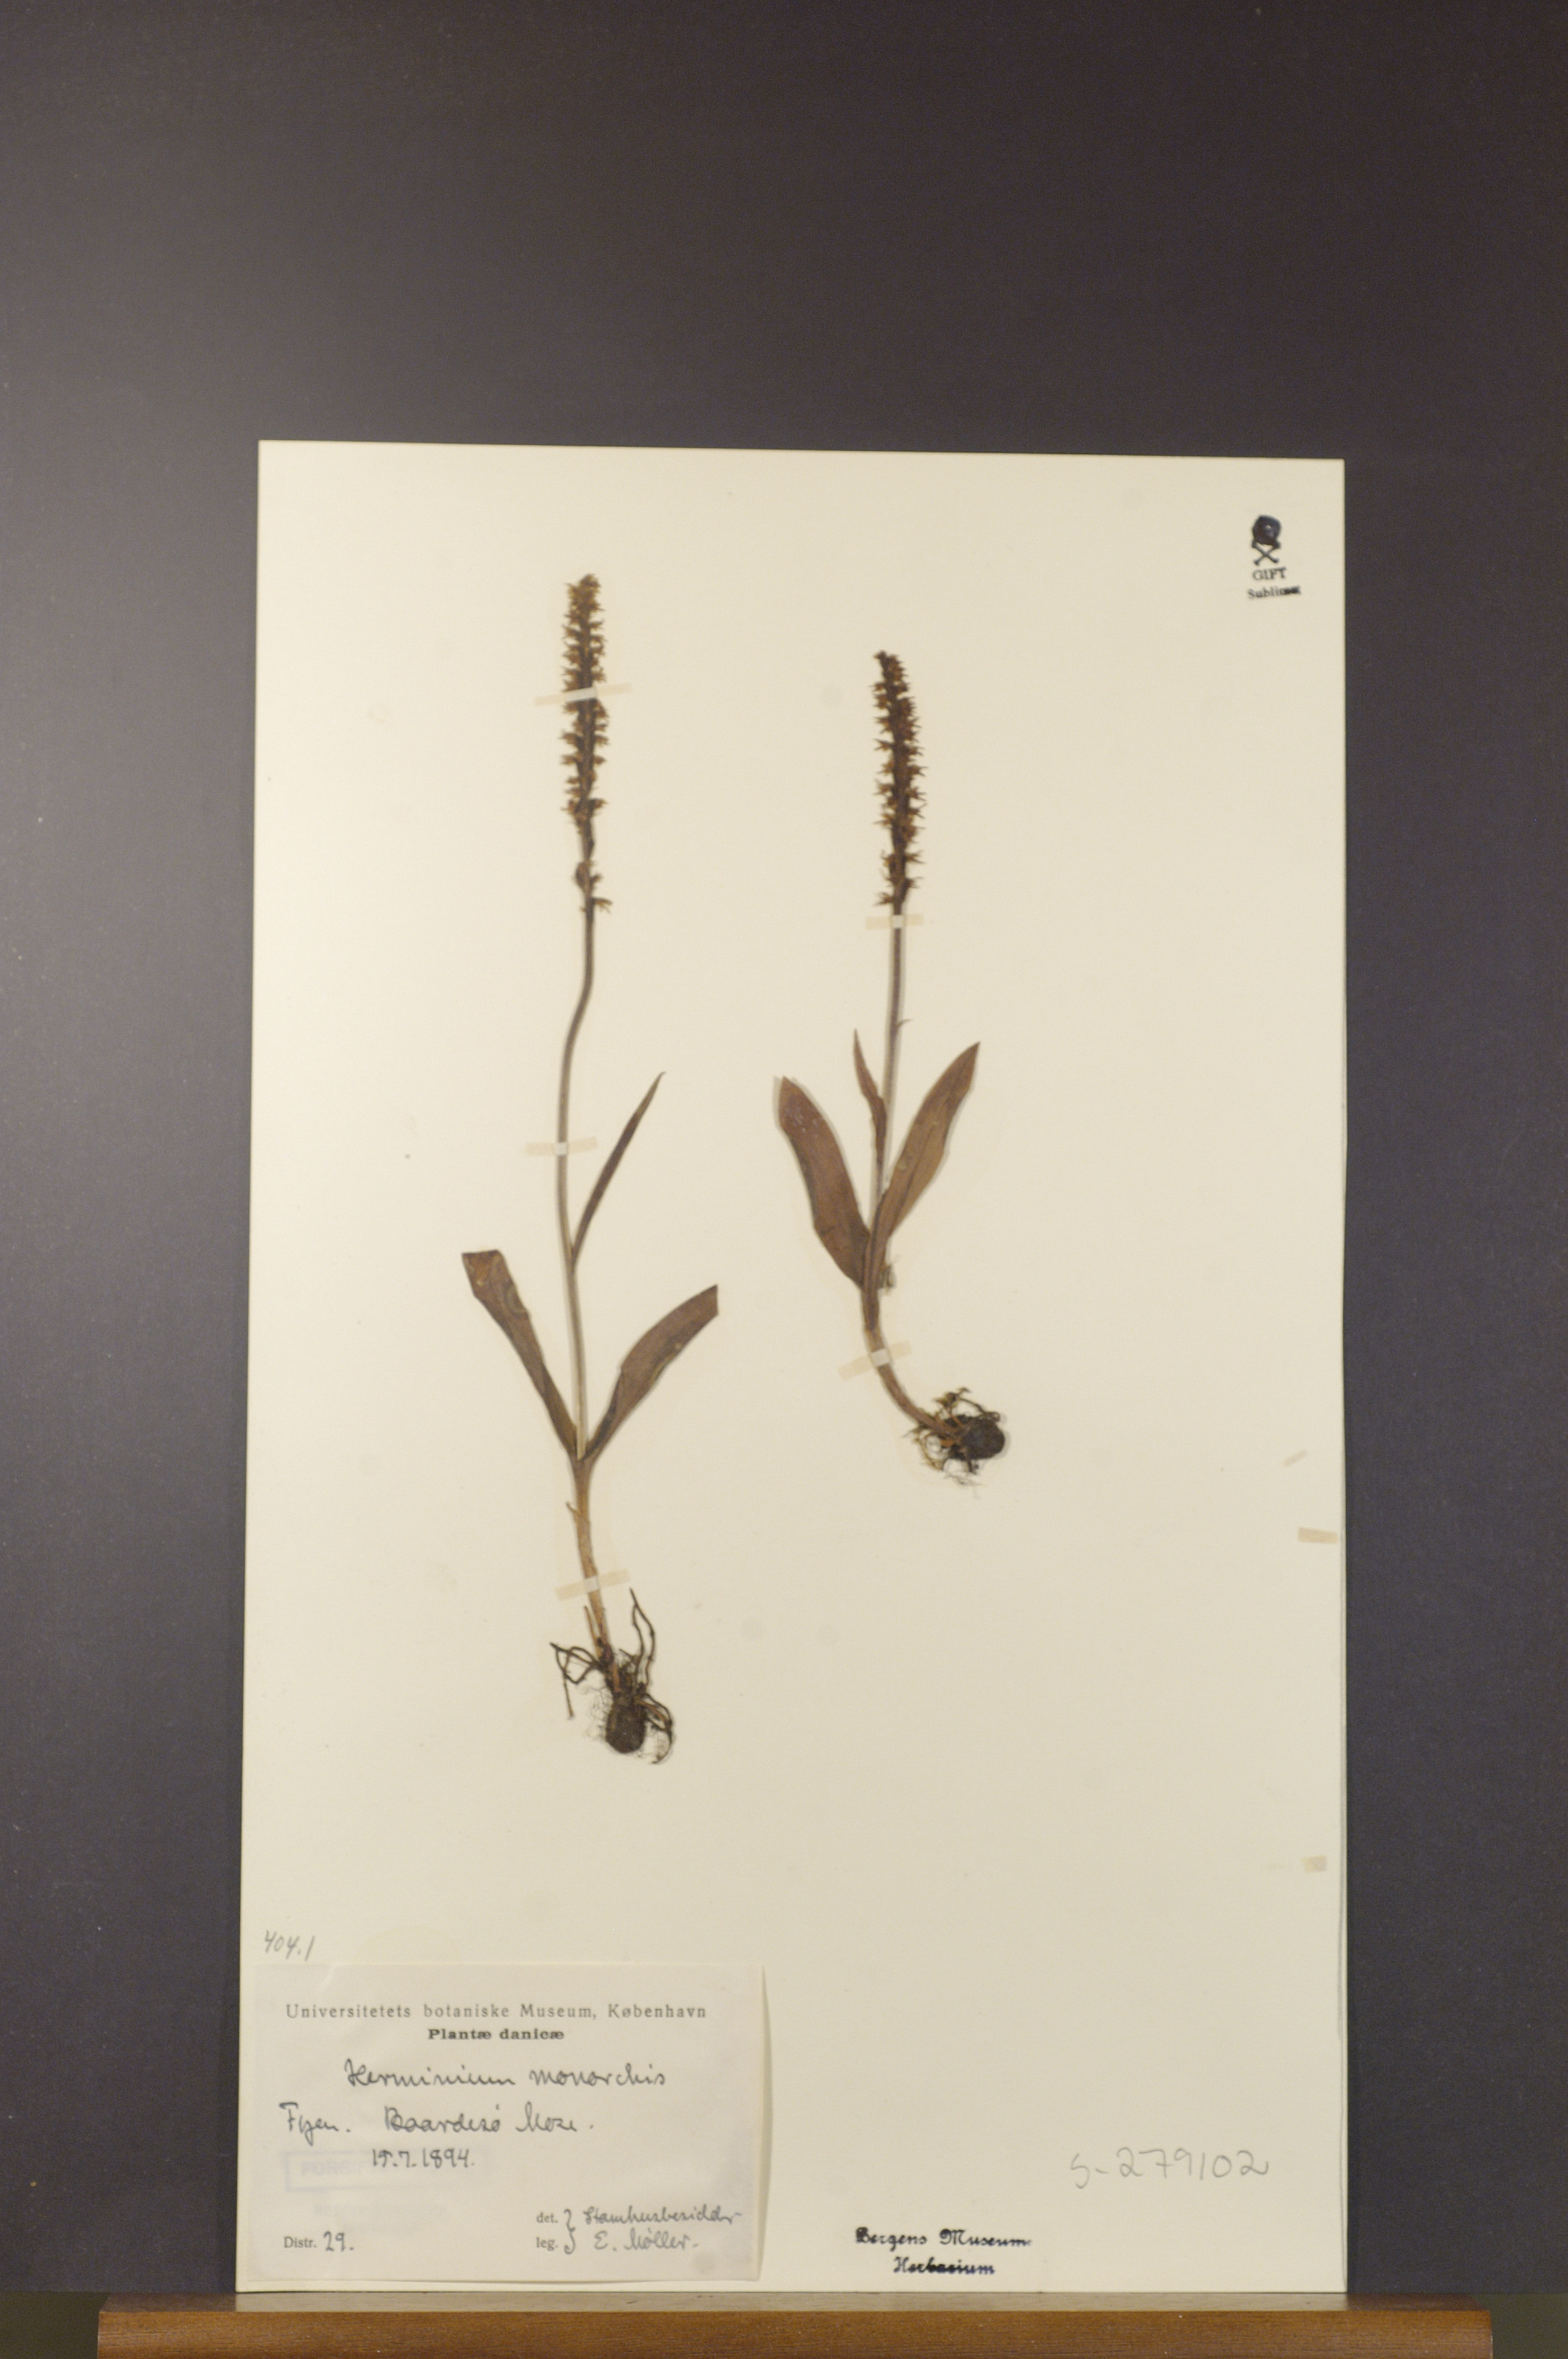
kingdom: Plantae
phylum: Tracheophyta
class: Liliopsida
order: Asparagales
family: Orchidaceae
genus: Herminium
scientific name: Herminium monorchis
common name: Musk orchid
